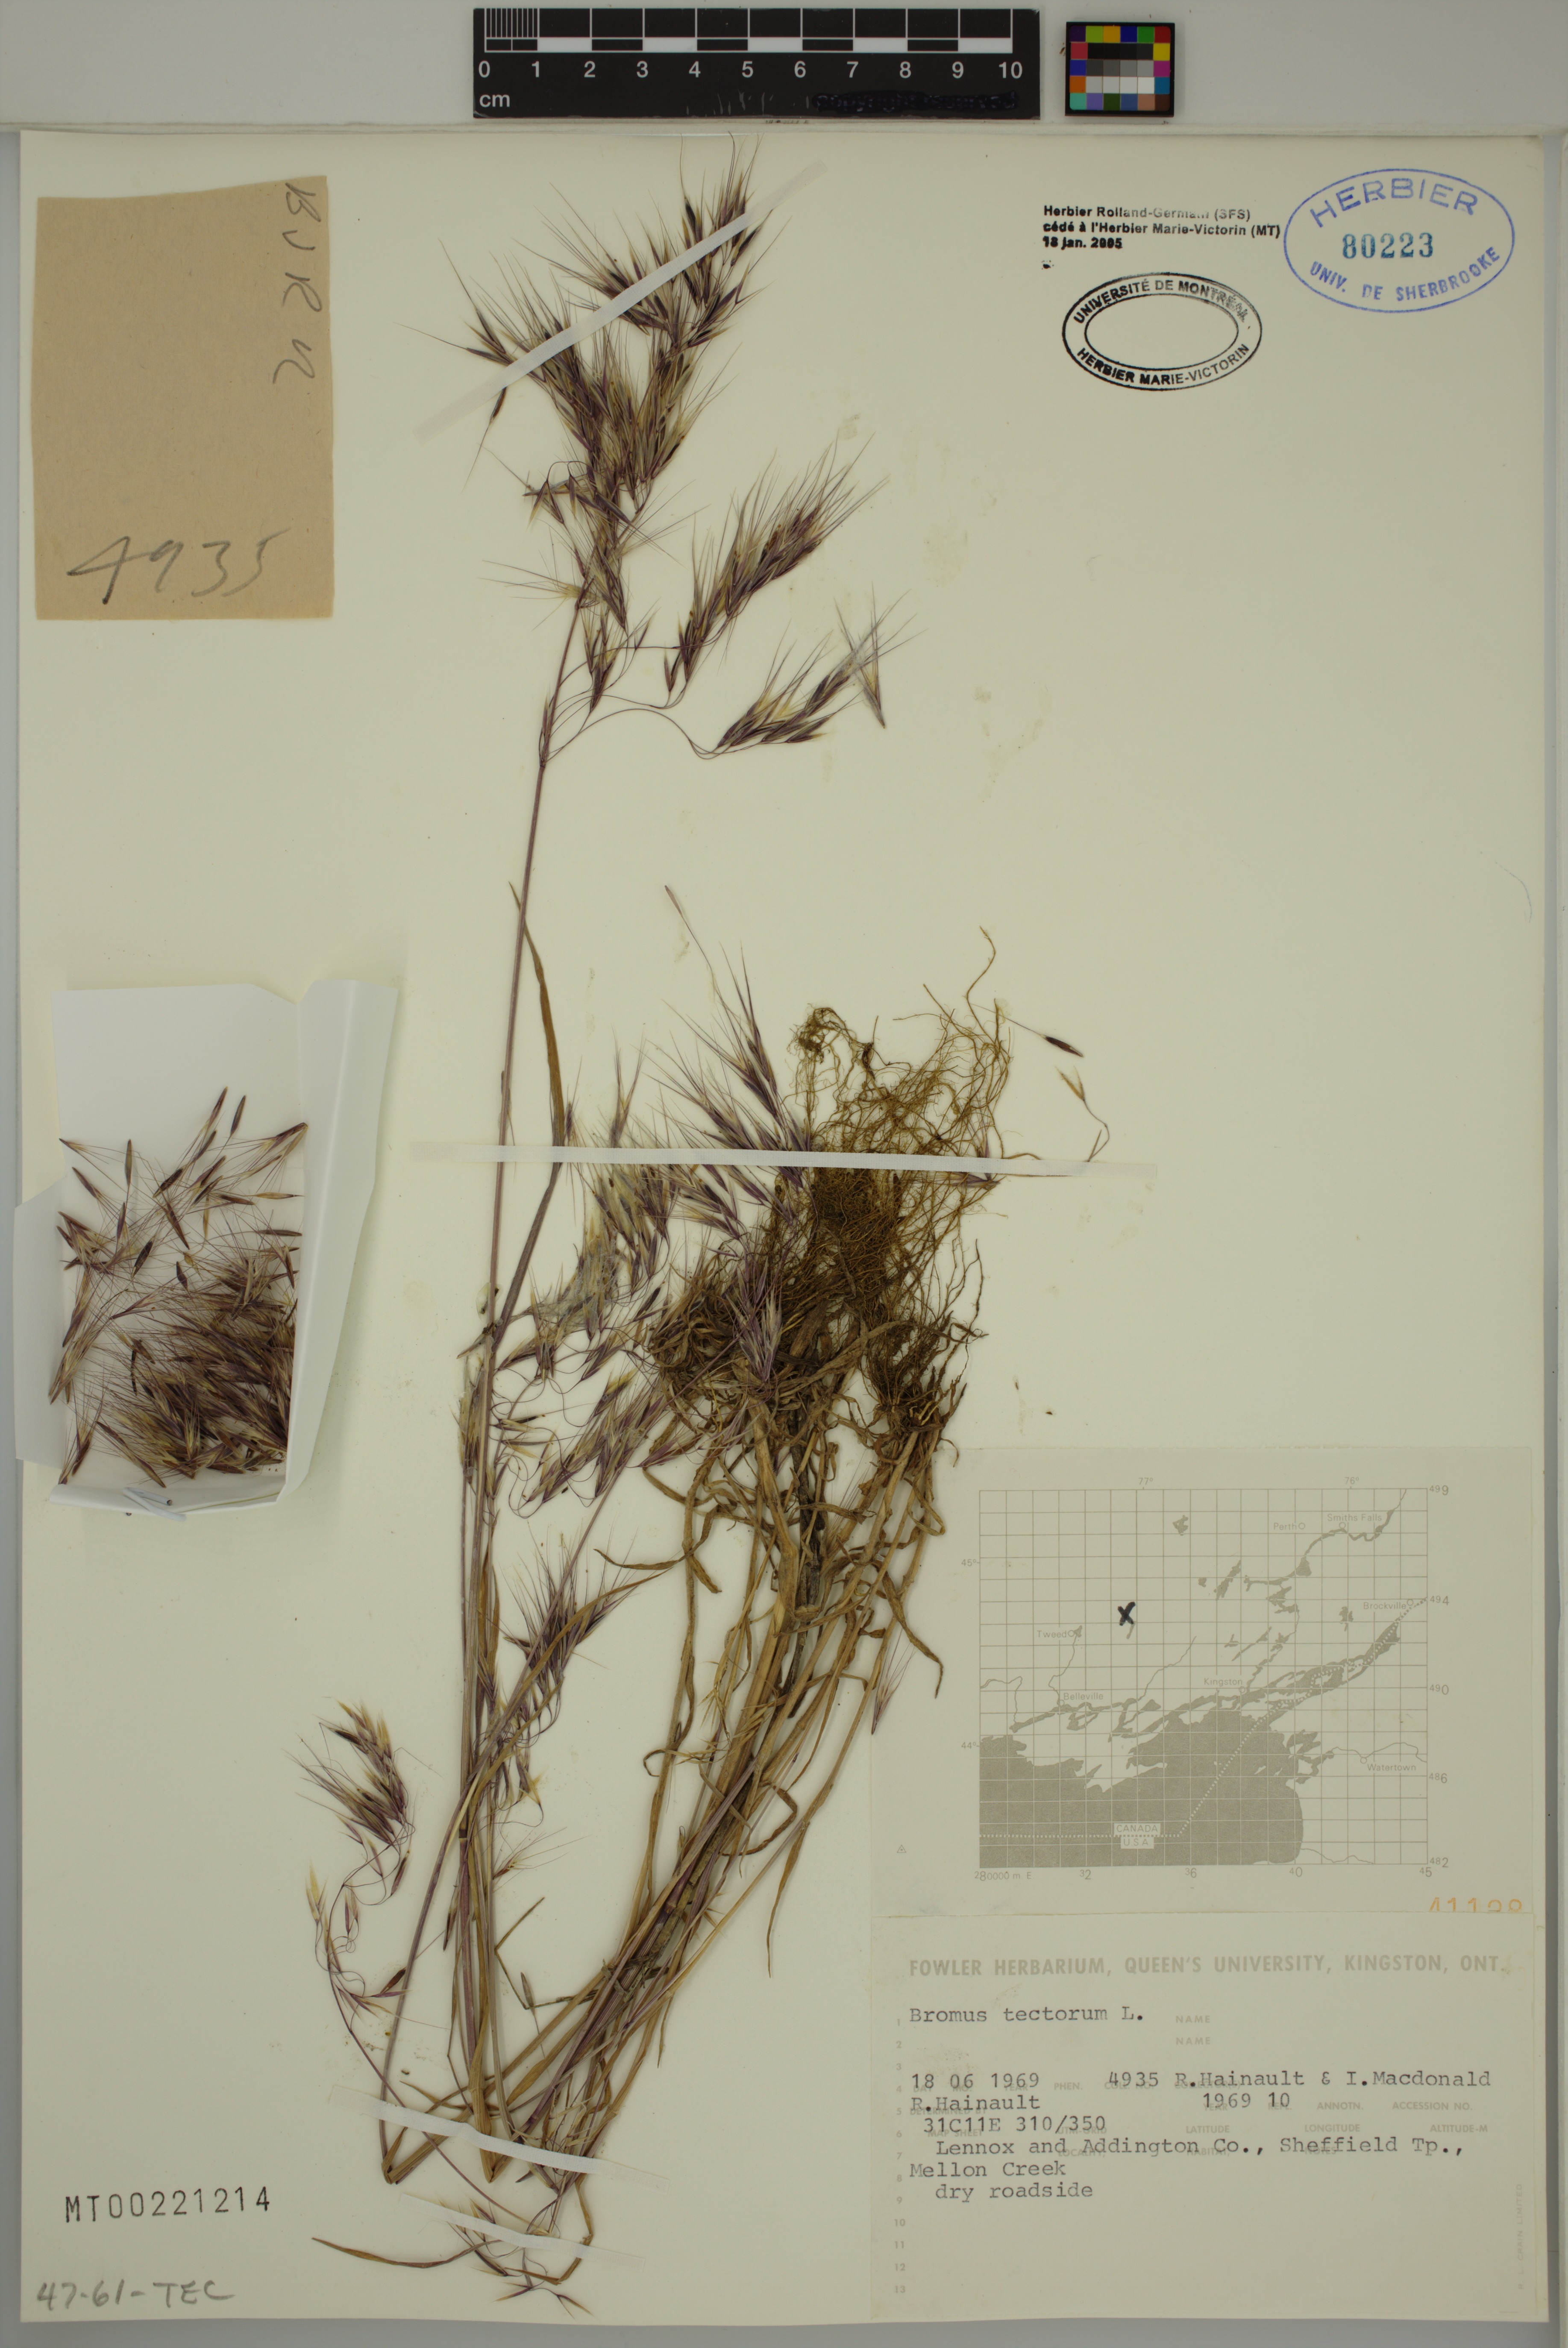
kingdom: Plantae
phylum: Tracheophyta
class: Liliopsida
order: Poales
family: Poaceae
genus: Bromus
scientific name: Bromus tectorum
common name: Cheatgrass
